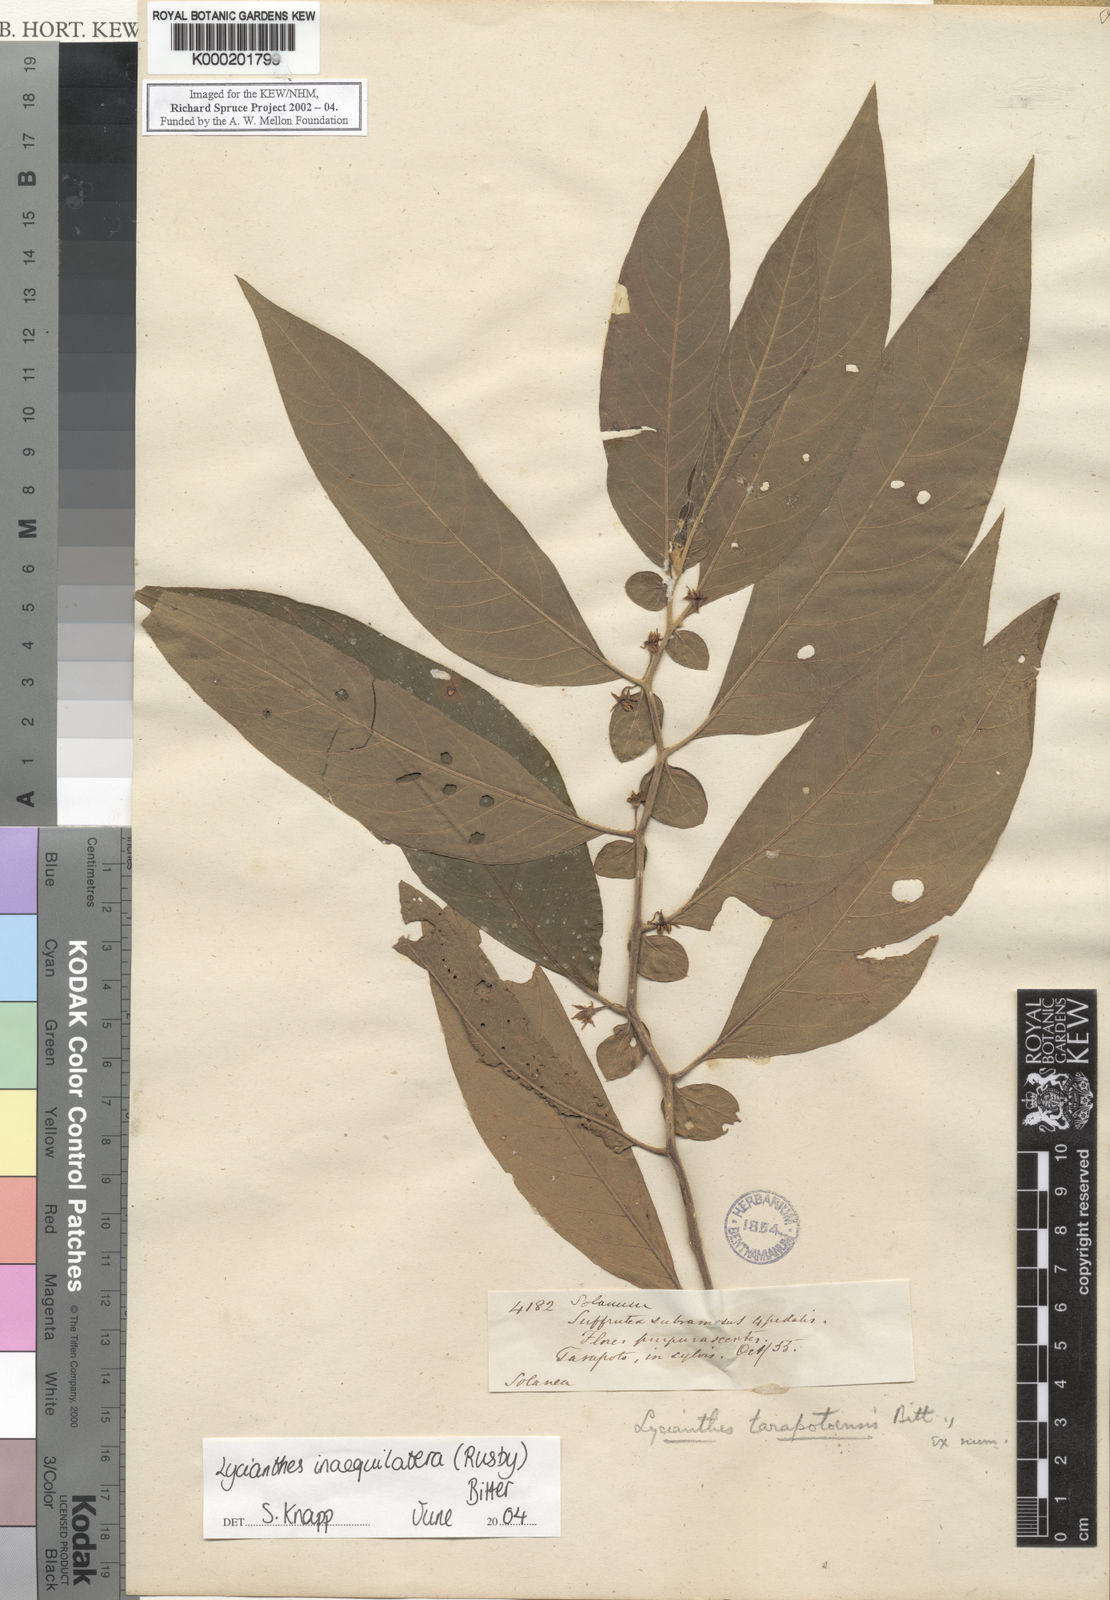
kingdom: Plantae
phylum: Tracheophyta
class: Magnoliopsida
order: Solanales
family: Solanaceae
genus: Lycianthes
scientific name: Lycianthes inaequilatera
